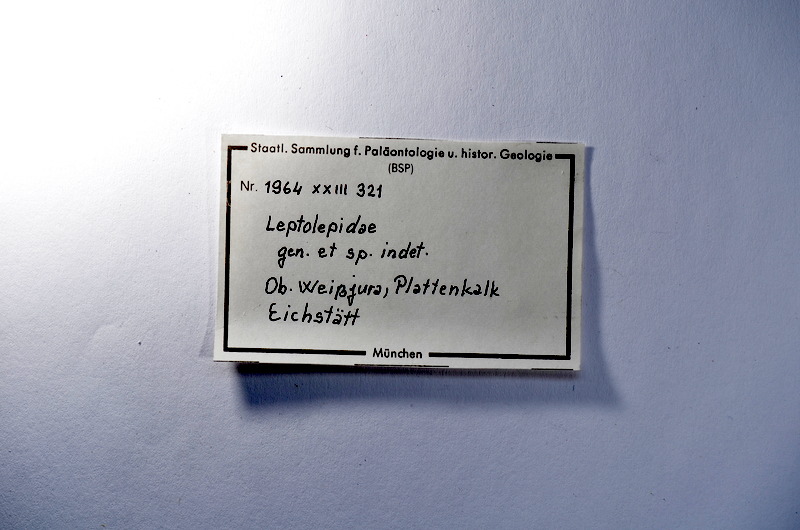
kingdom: Animalia
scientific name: Animalia
